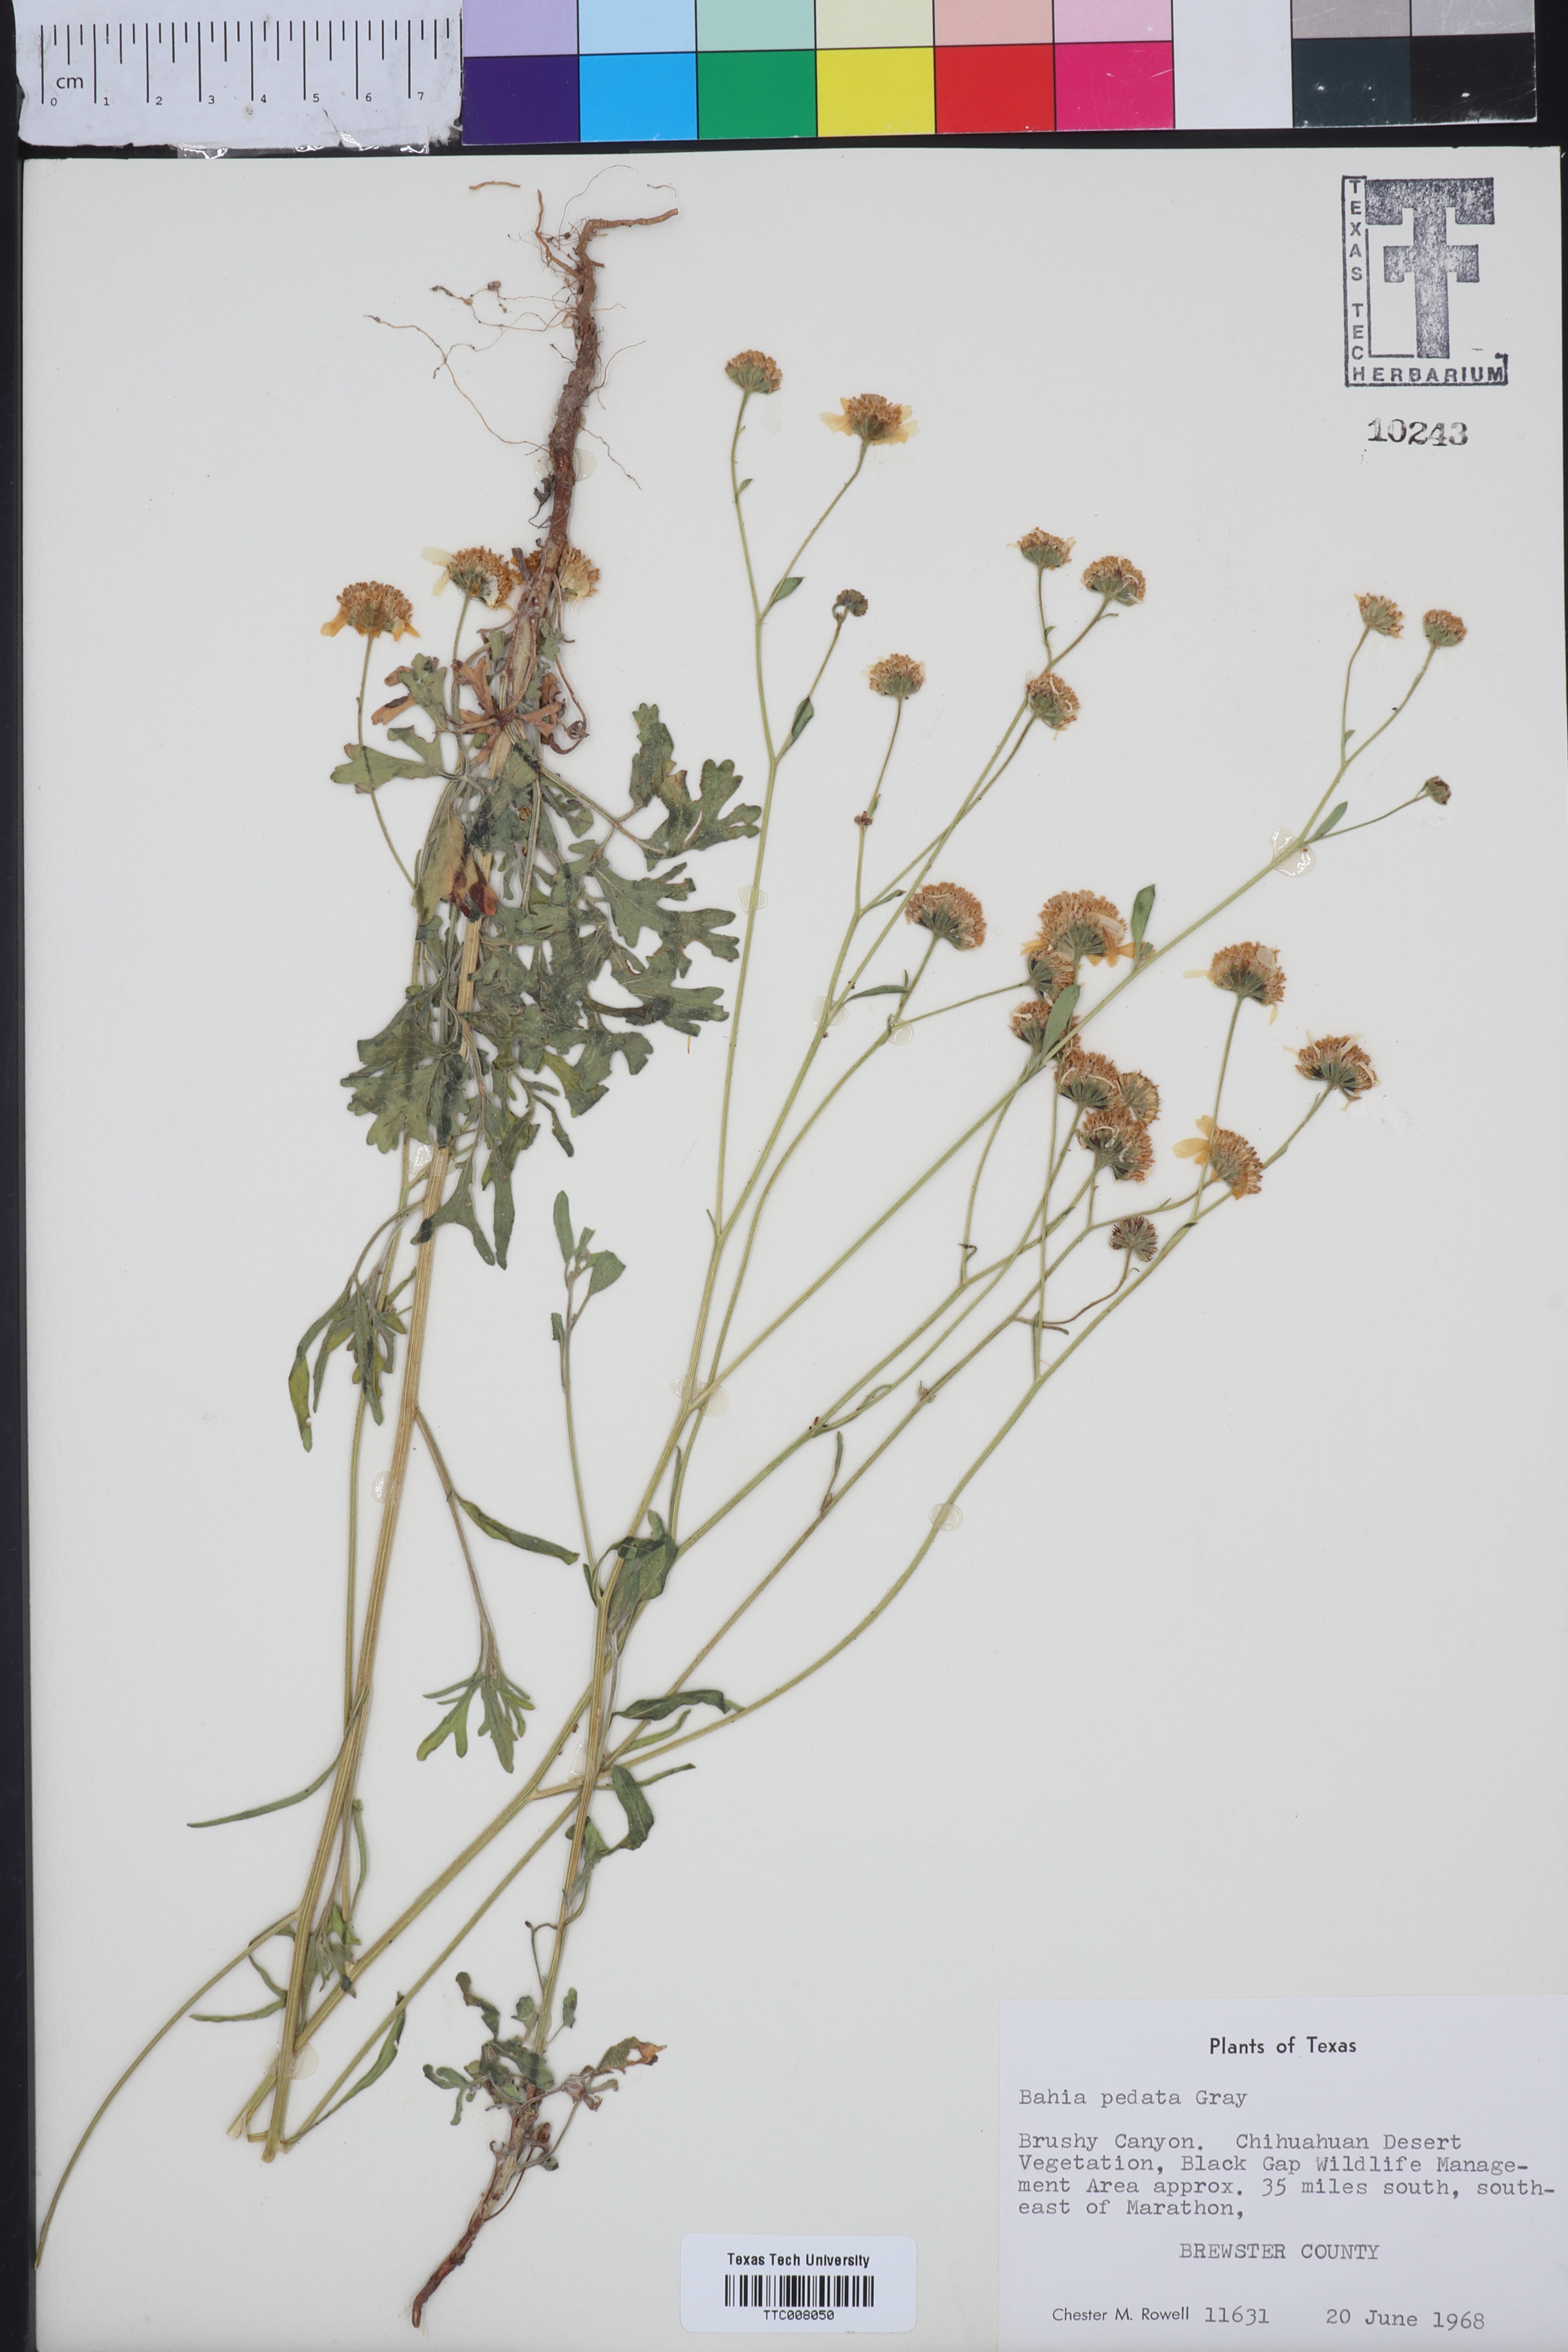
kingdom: Plantae
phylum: Tracheophyta
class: Magnoliopsida
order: Asterales
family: Asteraceae
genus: Hymenothrix
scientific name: Hymenothrix pedata
